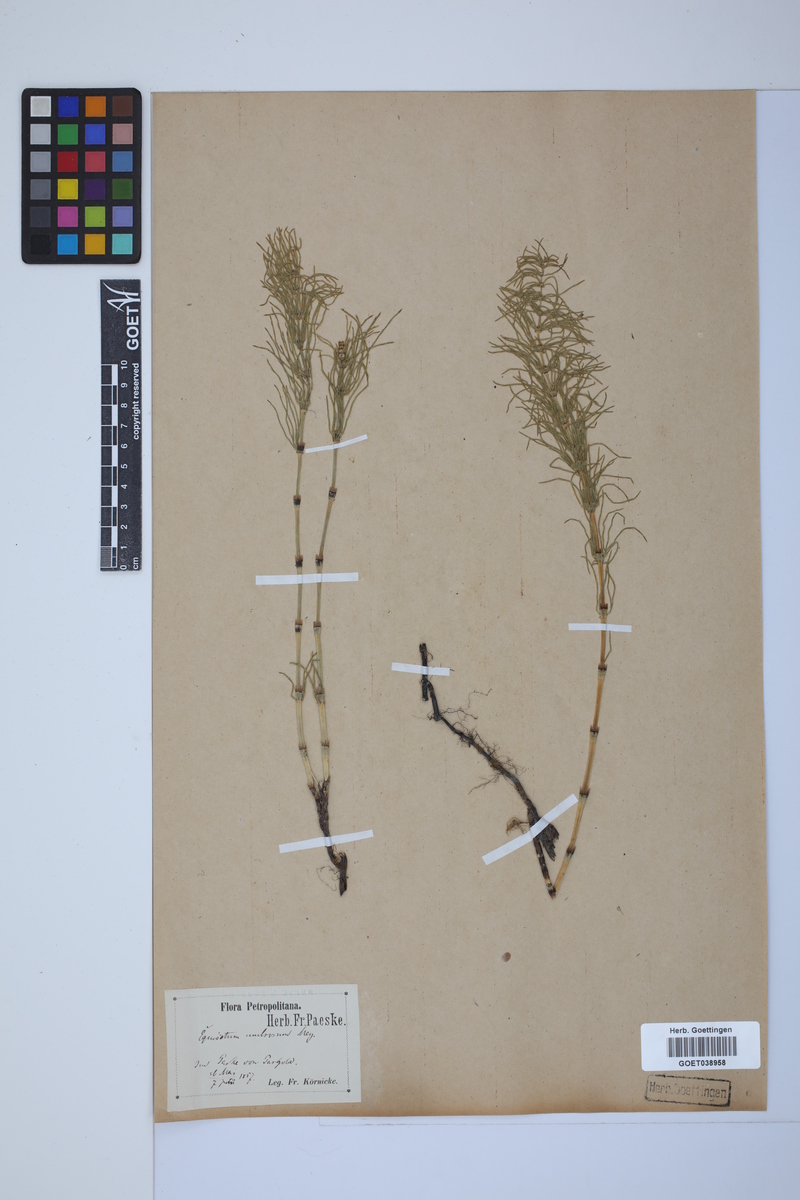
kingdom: Plantae
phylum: Tracheophyta
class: Polypodiopsida
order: Equisetales
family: Equisetaceae
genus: Equisetum
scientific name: Equisetum pratense
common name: Meadow horsetail
